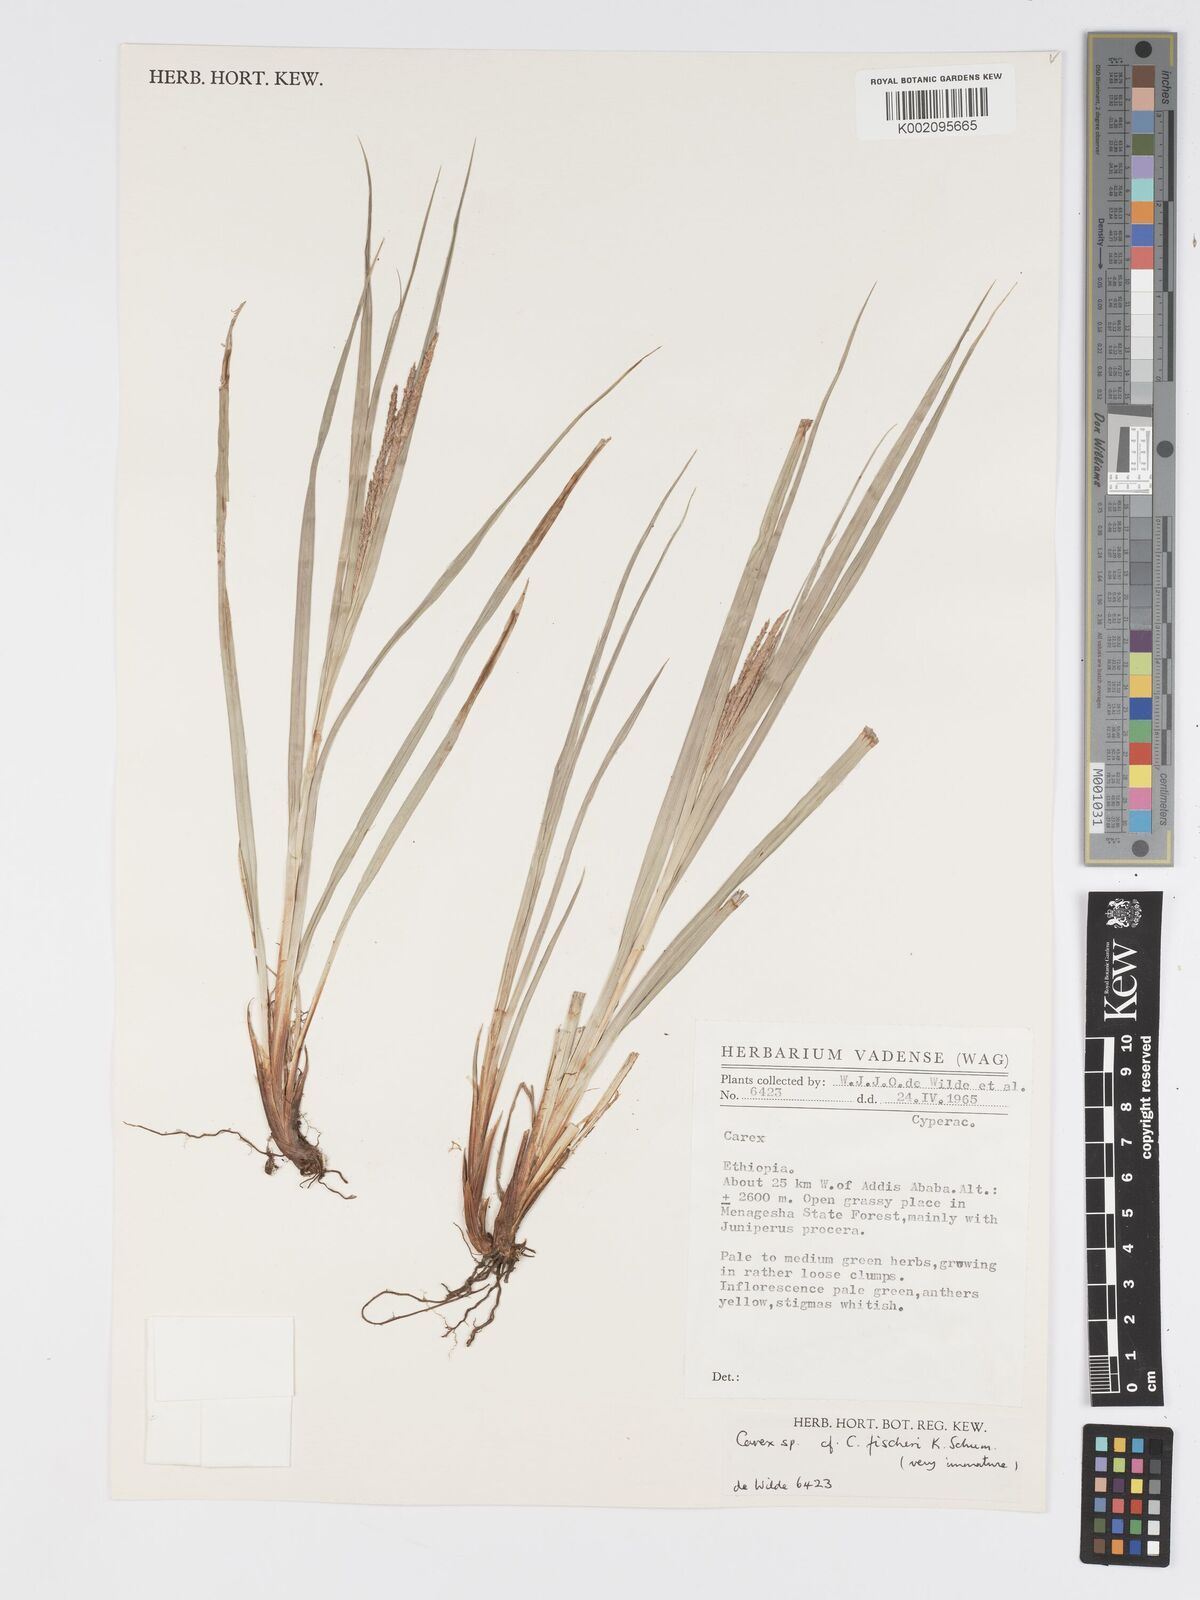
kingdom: Plantae
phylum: Tracheophyta
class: Liliopsida
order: Poales
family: Cyperaceae
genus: Carex
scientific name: Carex fischeri
